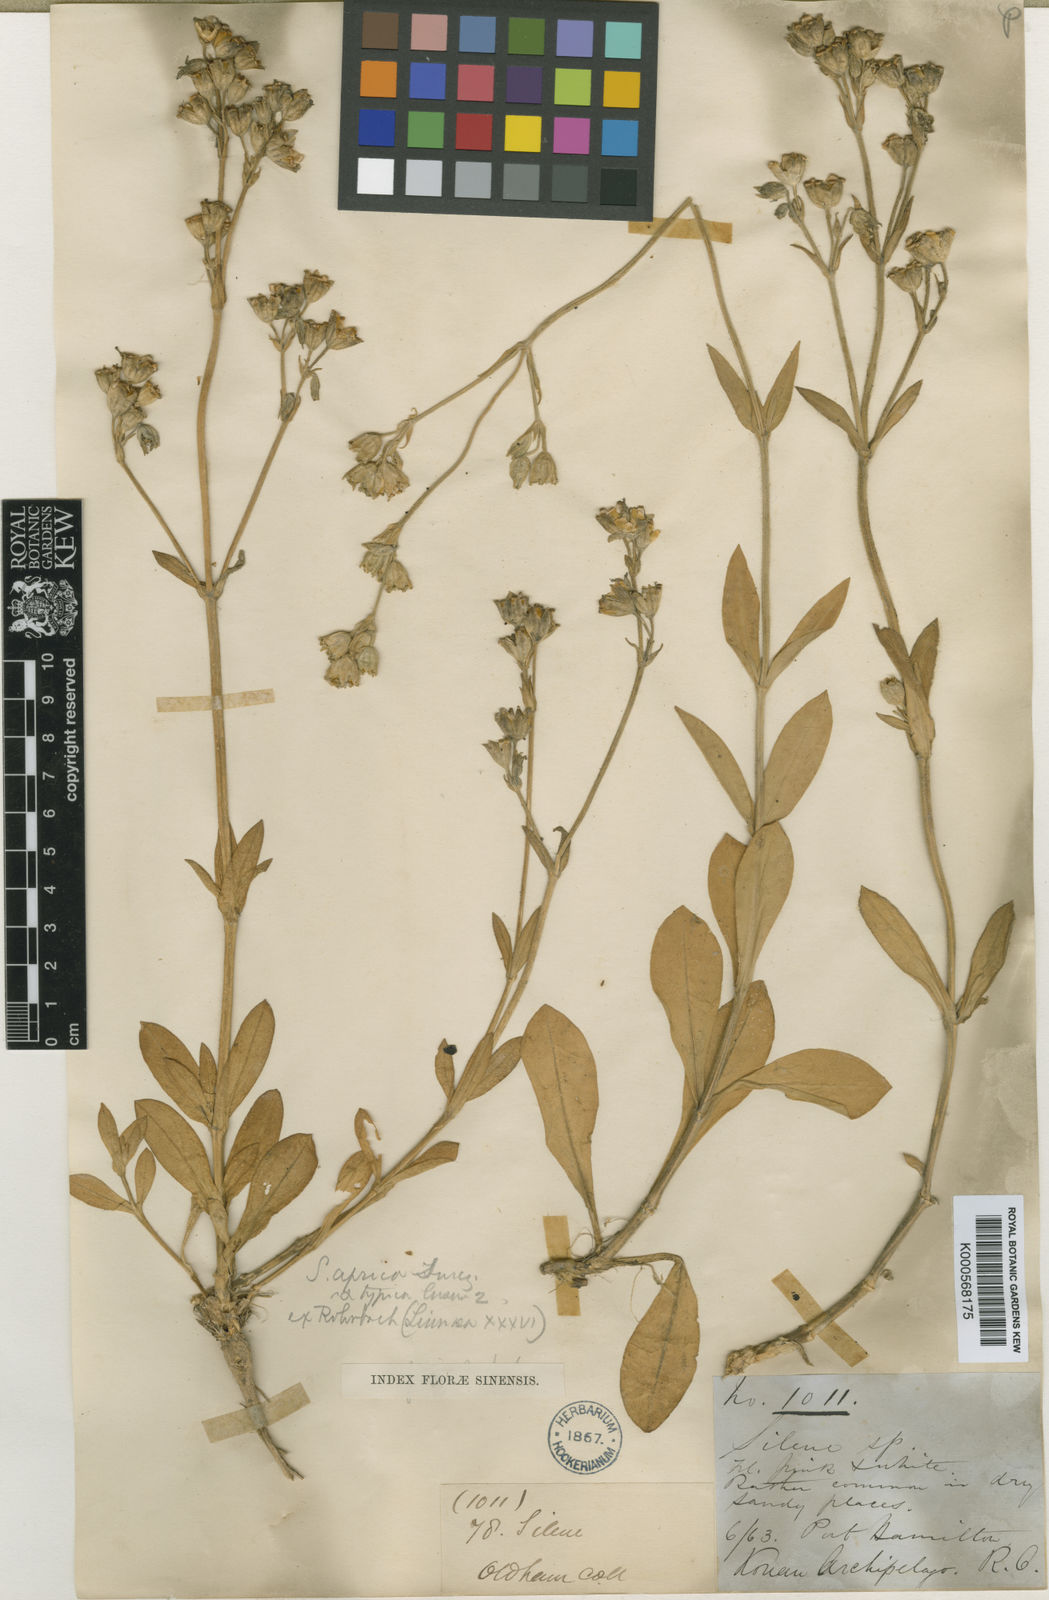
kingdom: Plantae
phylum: Tracheophyta
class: Magnoliopsida
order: Caryophyllales
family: Caryophyllaceae
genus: Silene
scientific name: Silene
